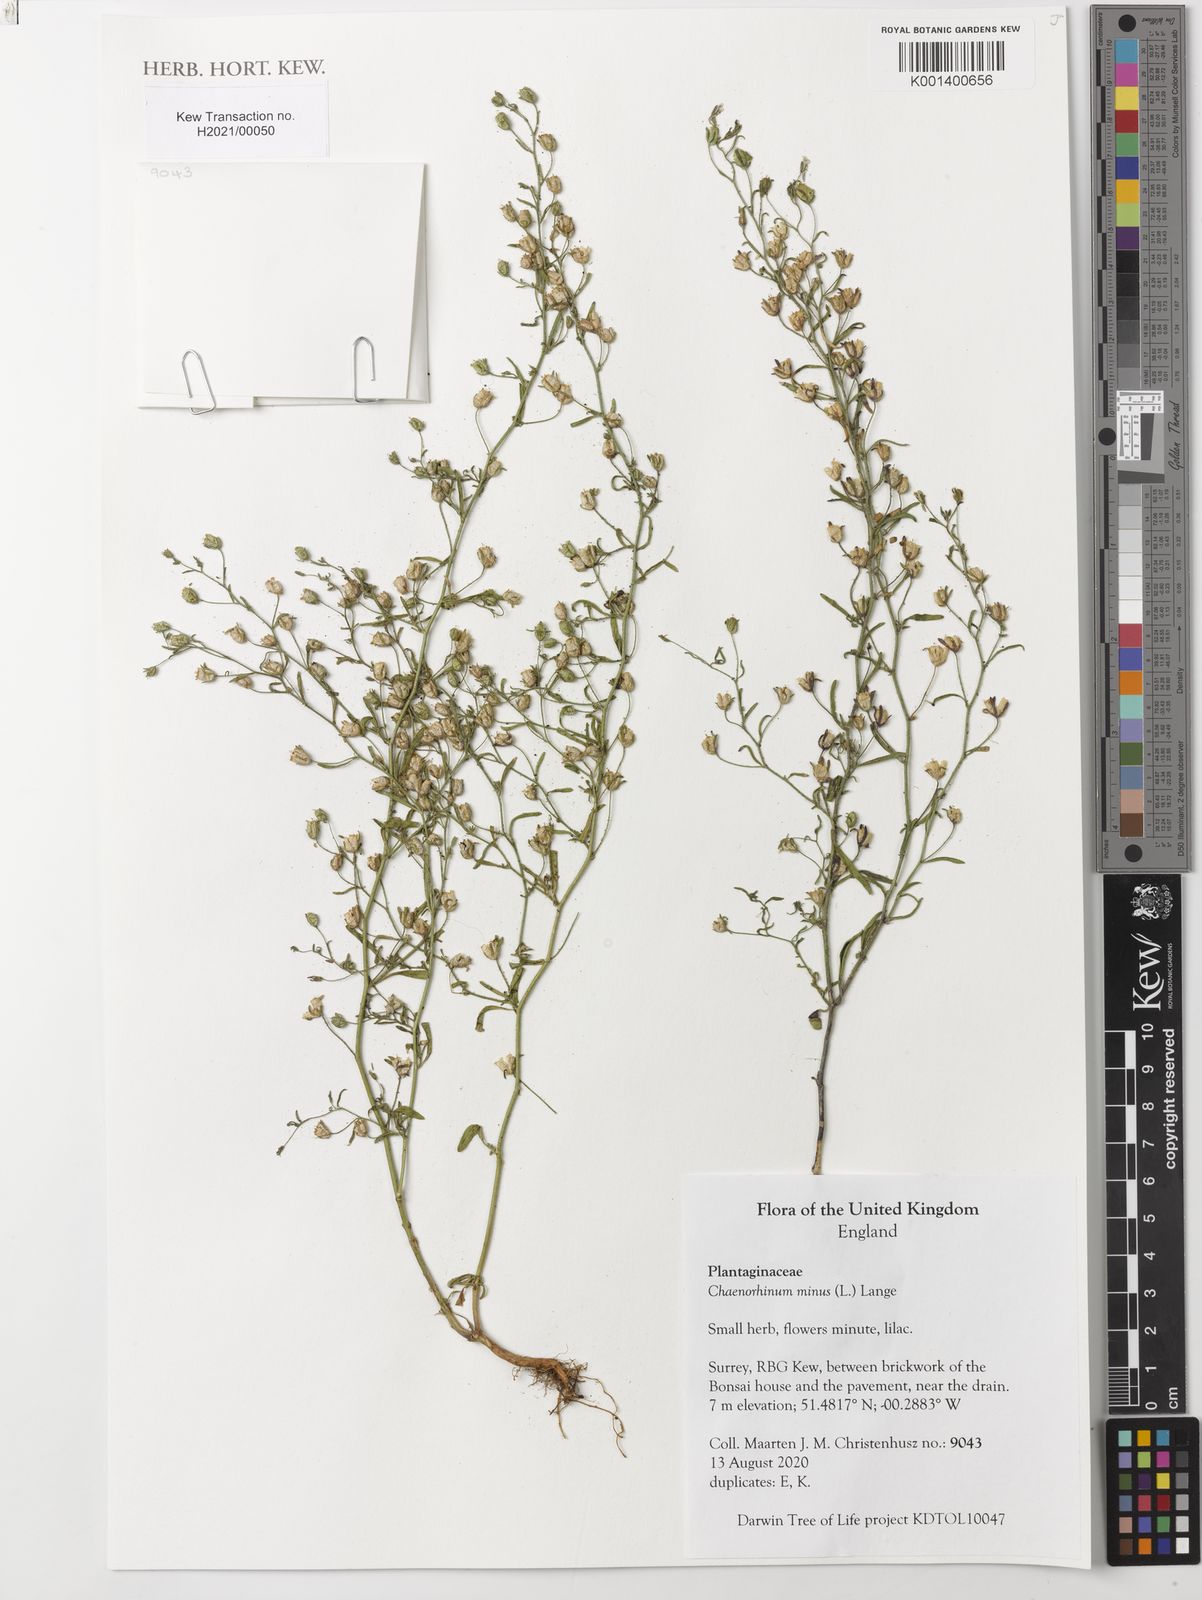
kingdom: Plantae
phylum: Tracheophyta
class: Magnoliopsida
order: Lamiales
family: Plantaginaceae
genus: Chaenorhinum
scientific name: Chaenorhinum minus
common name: Dwarf snapdragon
